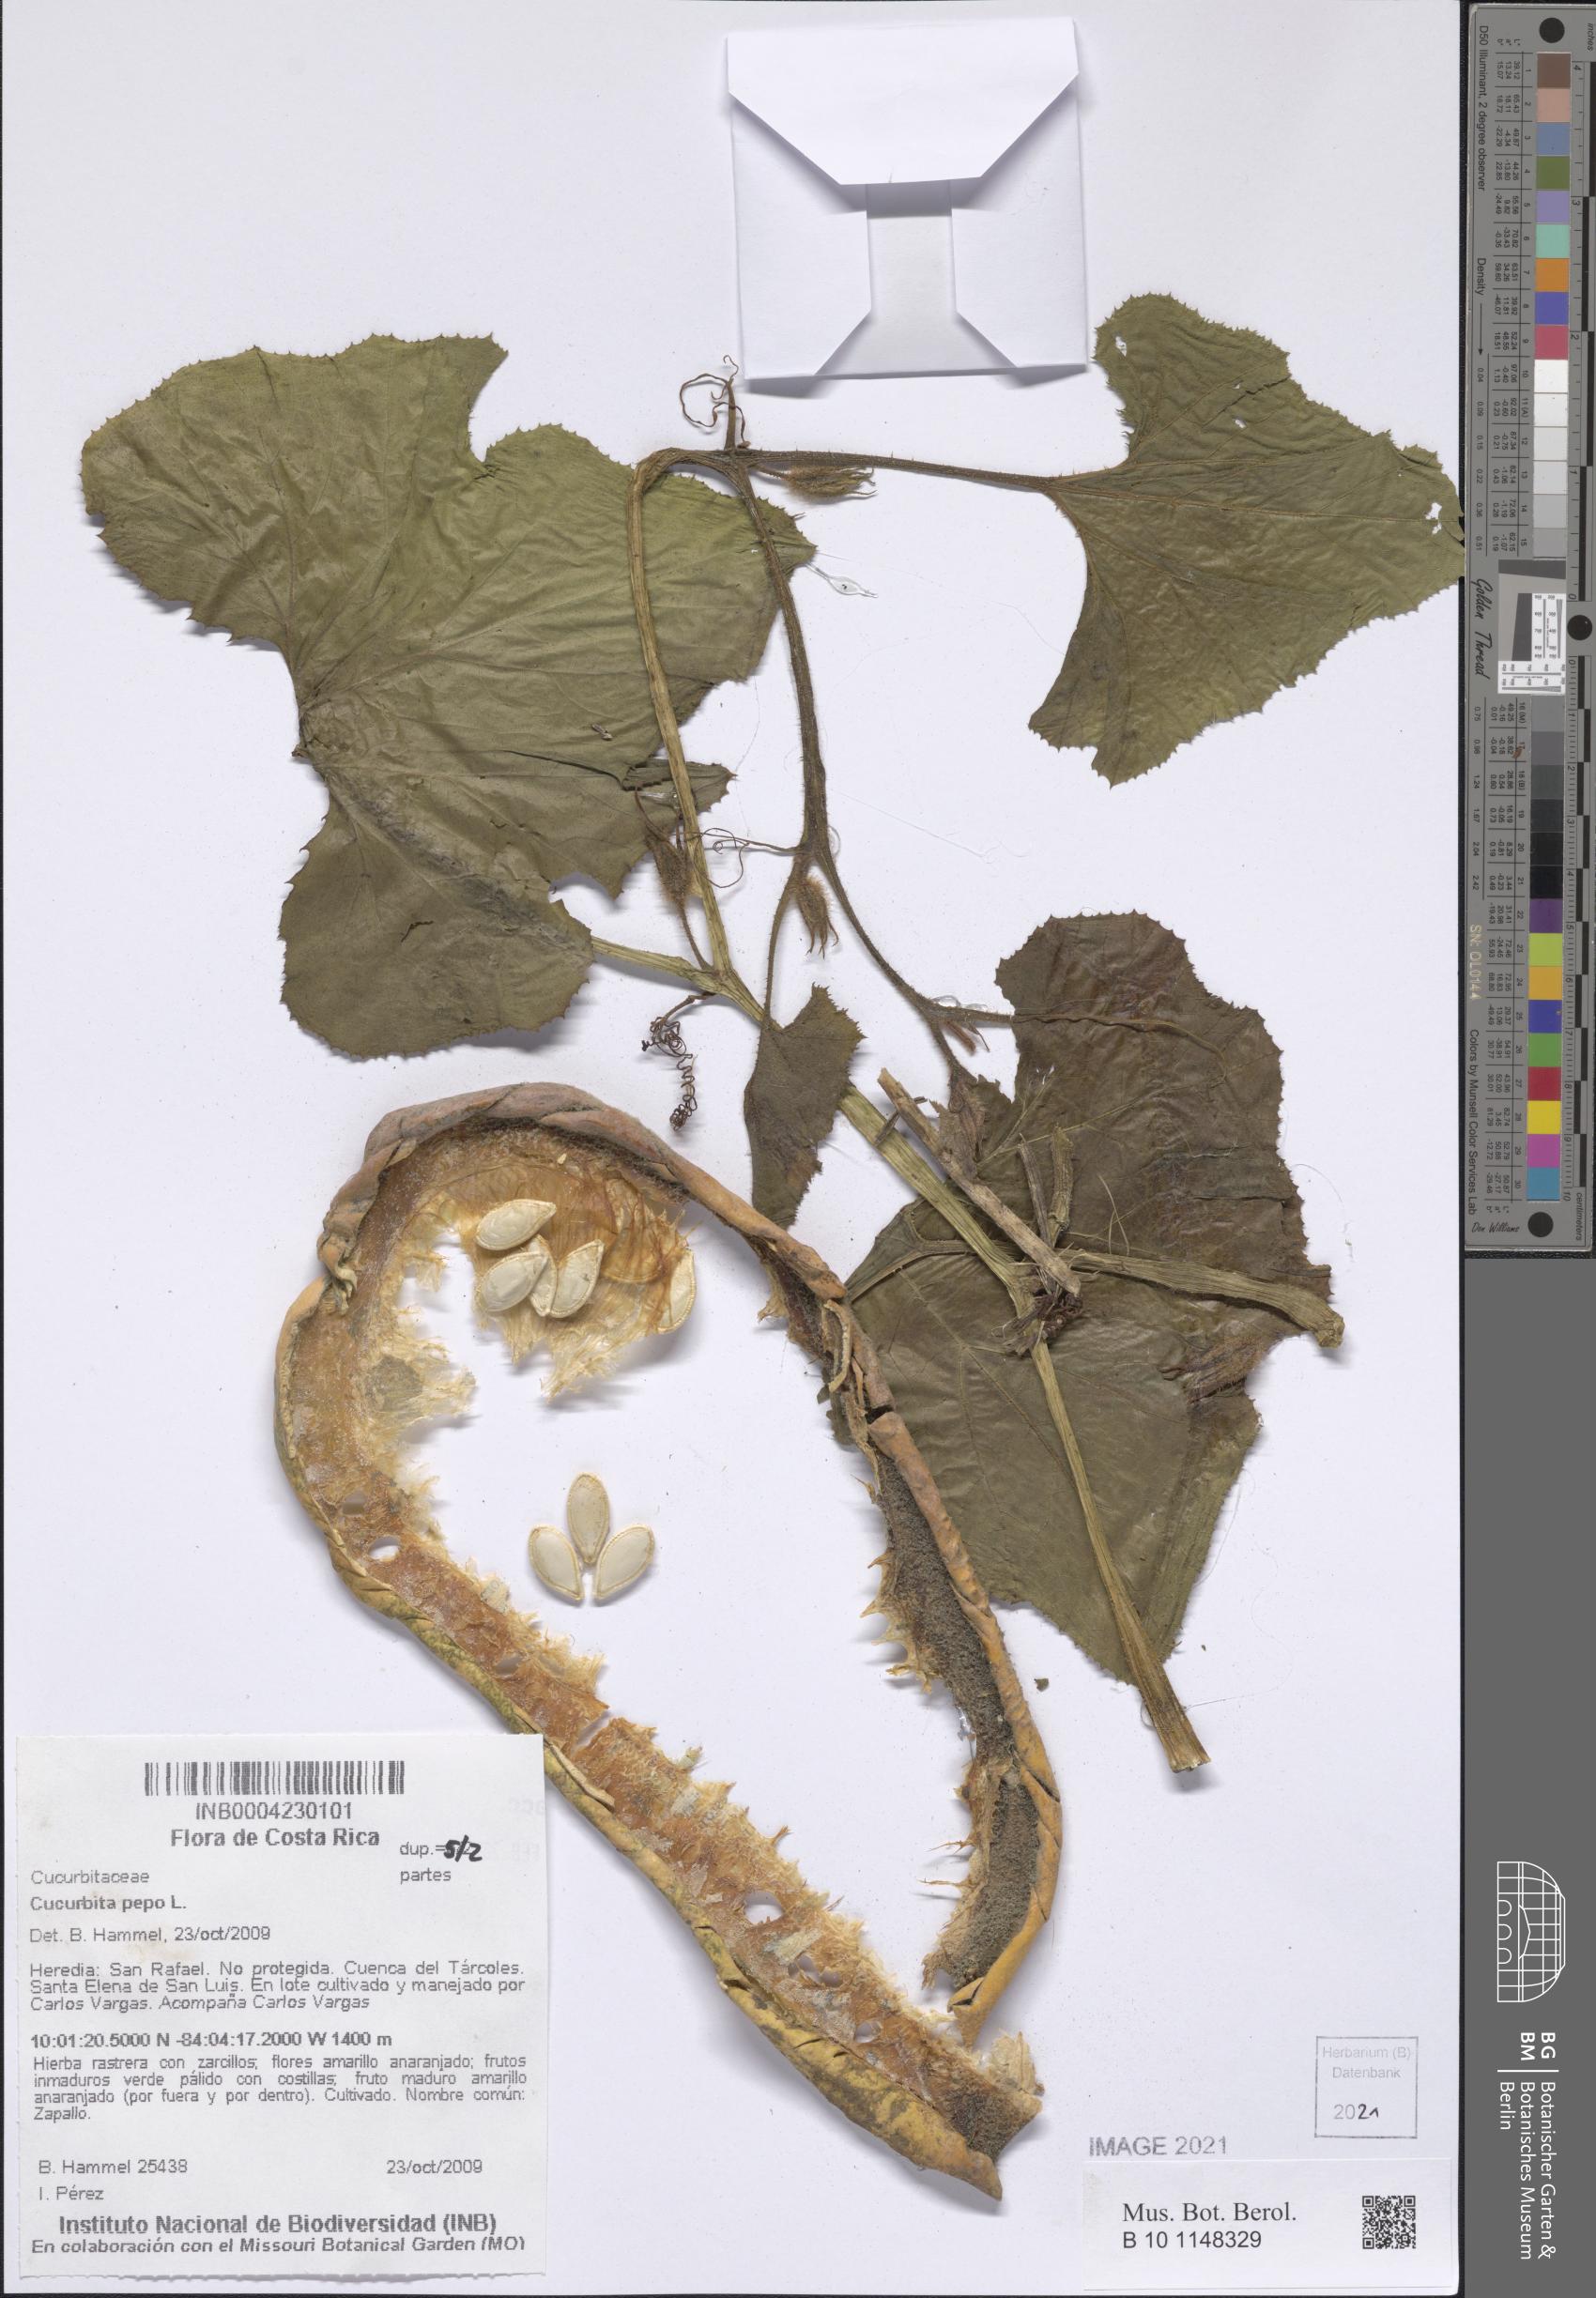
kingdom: Plantae
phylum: Tracheophyta
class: Magnoliopsida
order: Cucurbitales
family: Cucurbitaceae
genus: Cucurbita
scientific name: Cucurbita pepo
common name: Marrow
